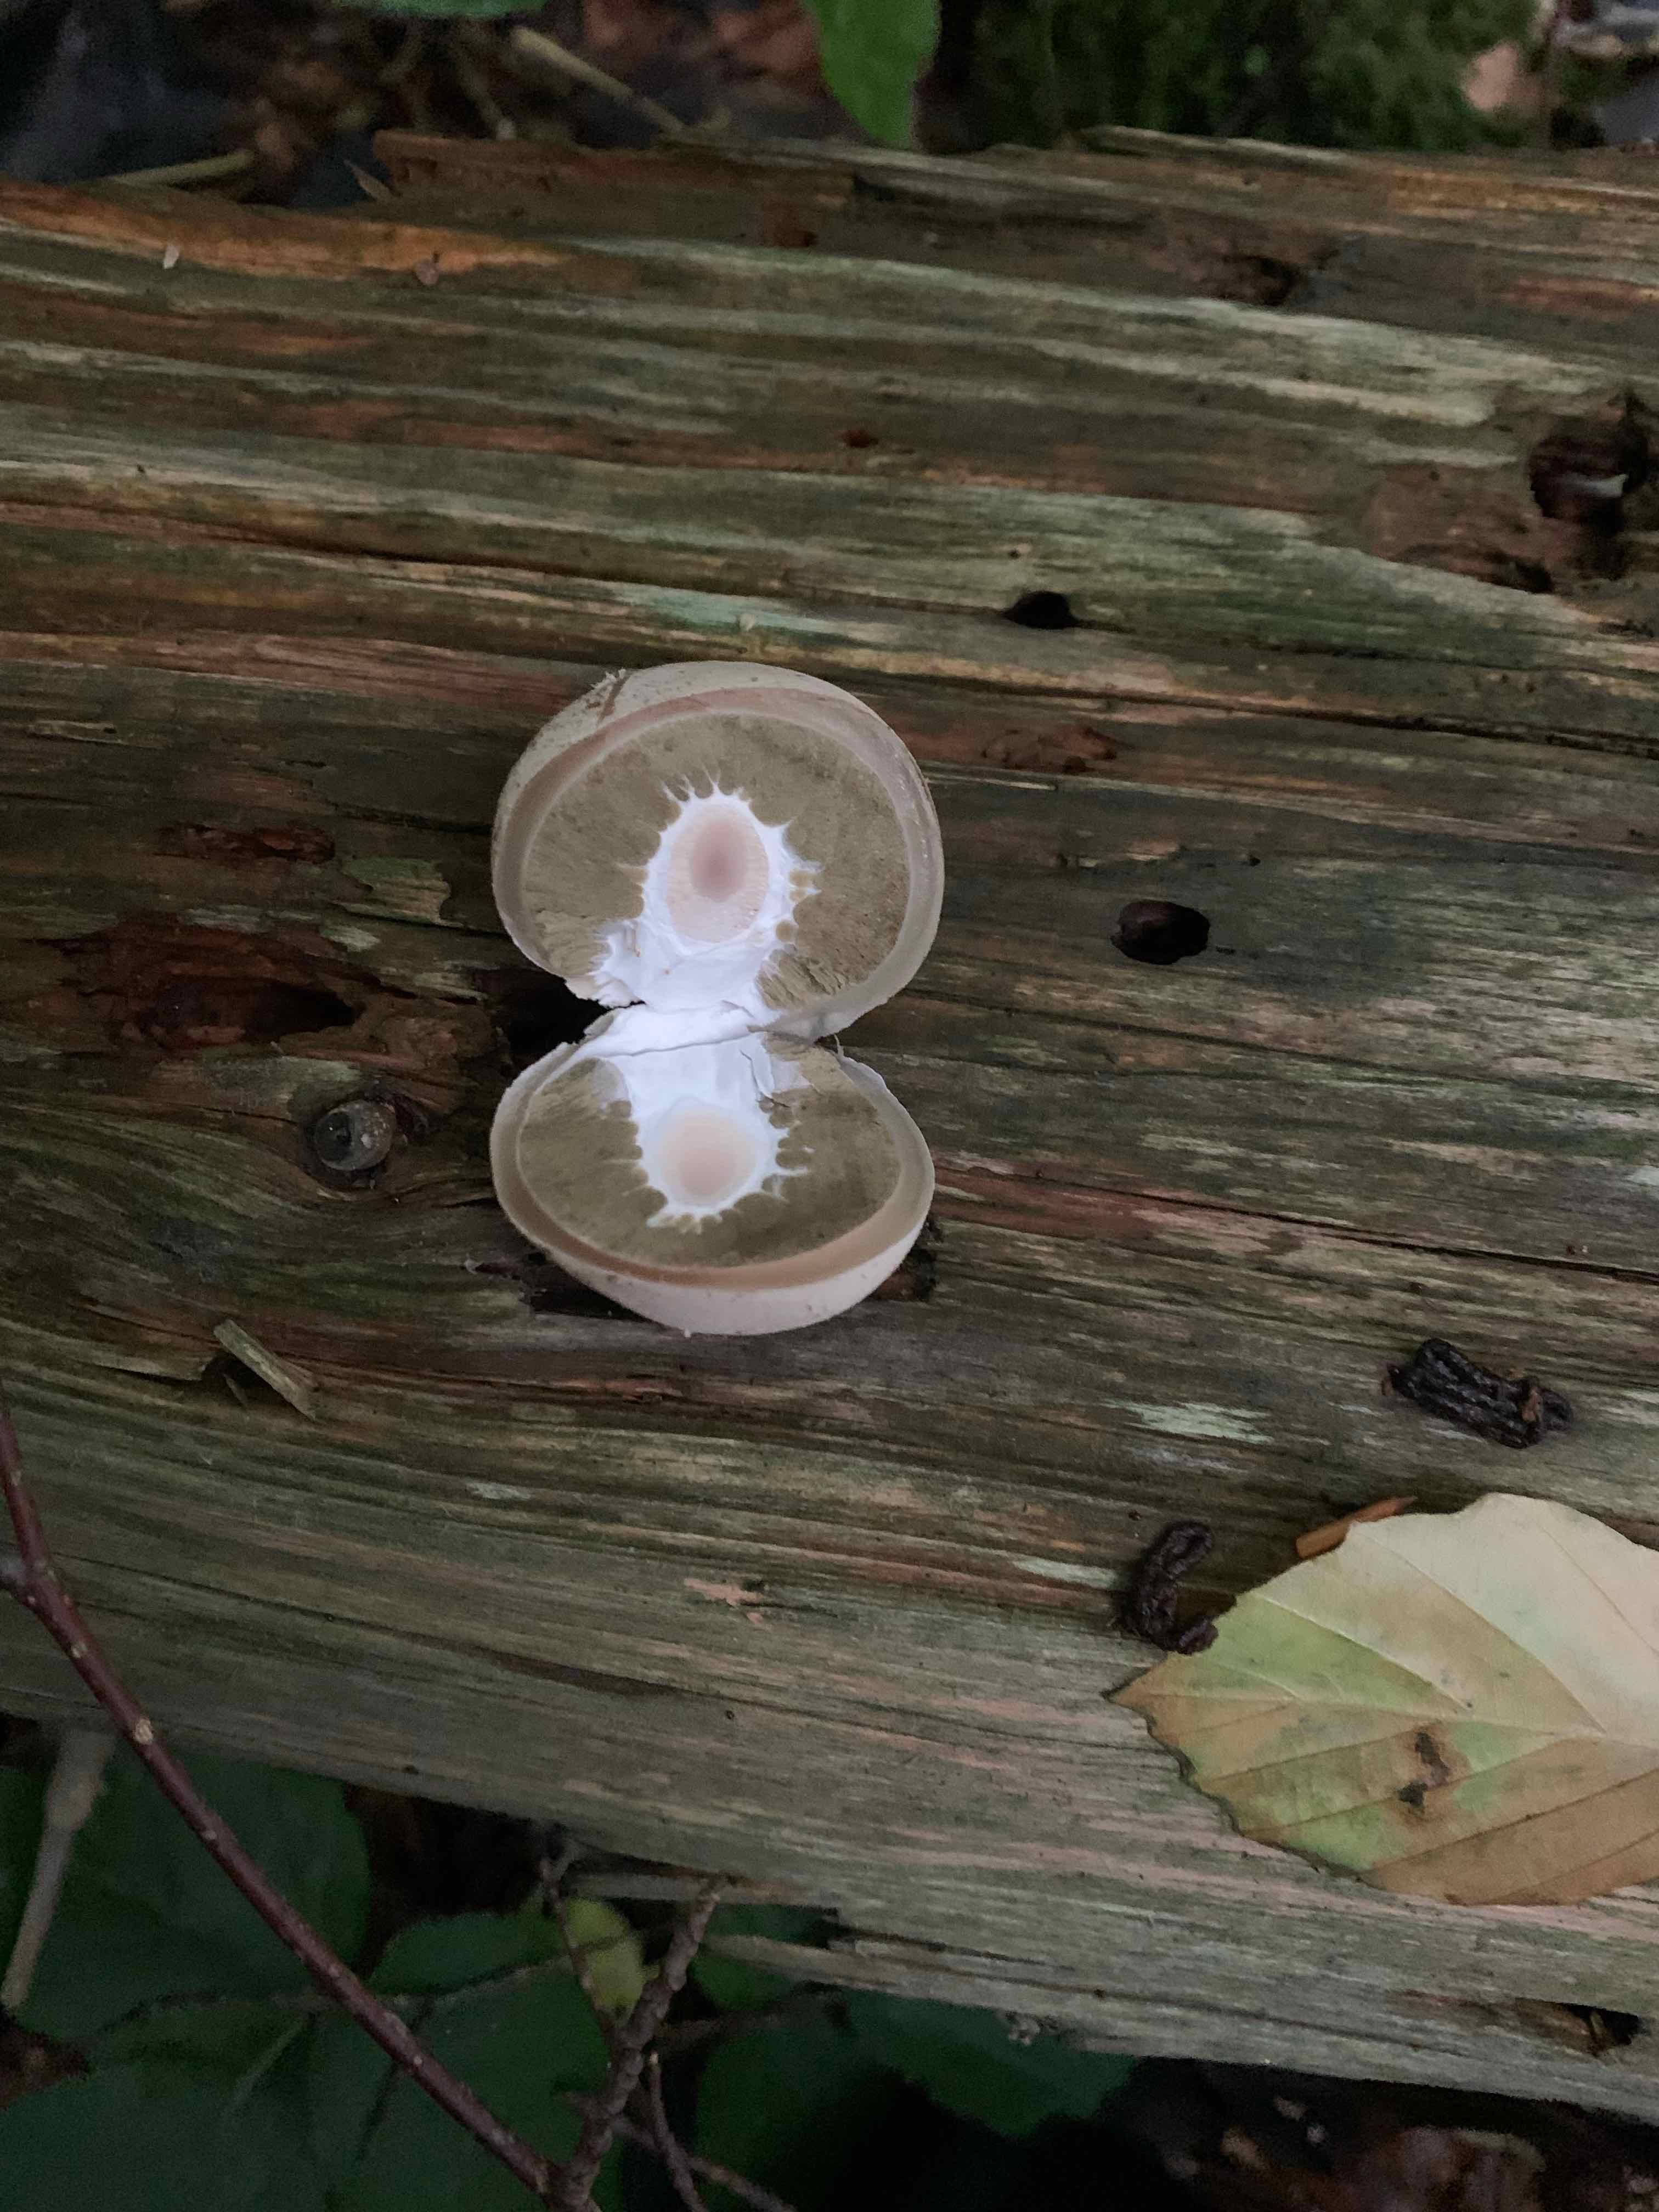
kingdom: Fungi
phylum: Basidiomycota
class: Agaricomycetes
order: Phallales
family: Phallaceae
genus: Phallus
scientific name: Phallus impudicus
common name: almindelig stinksvamp
